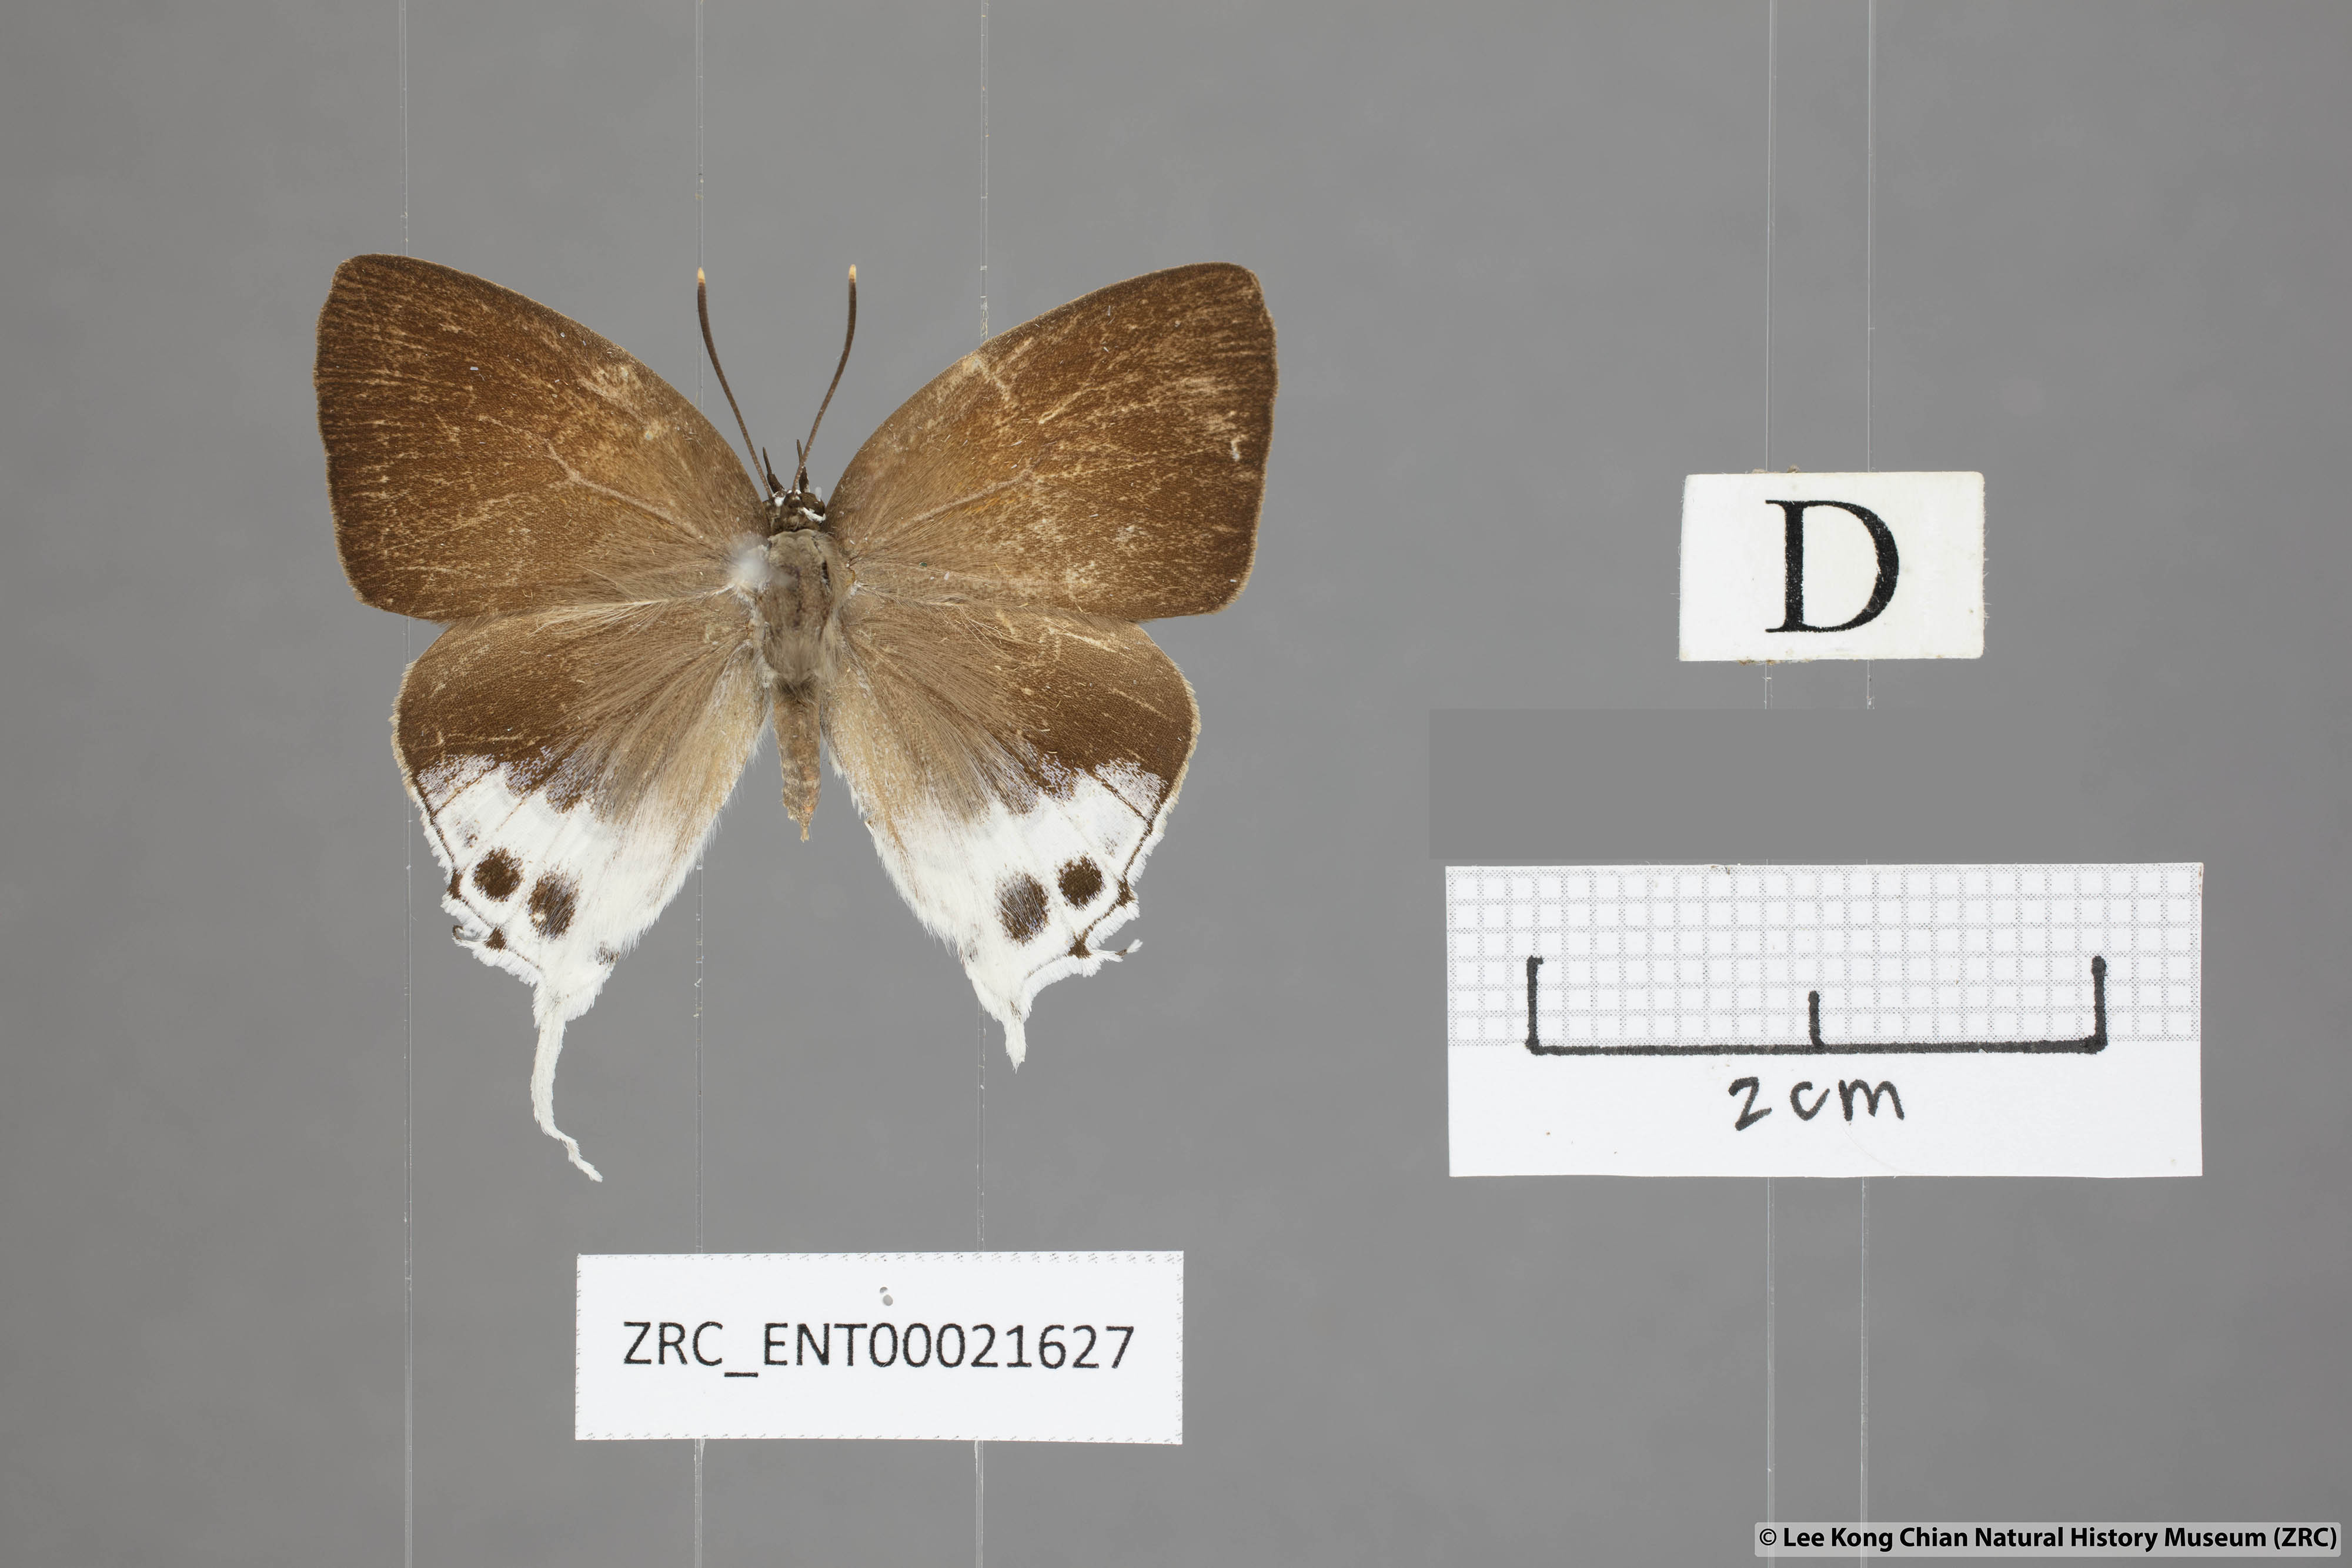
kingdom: Animalia
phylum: Arthropoda
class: Insecta
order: Lepidoptera
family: Lycaenidae
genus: Mantoides
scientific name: Mantoides gama
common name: Distant's imperial
